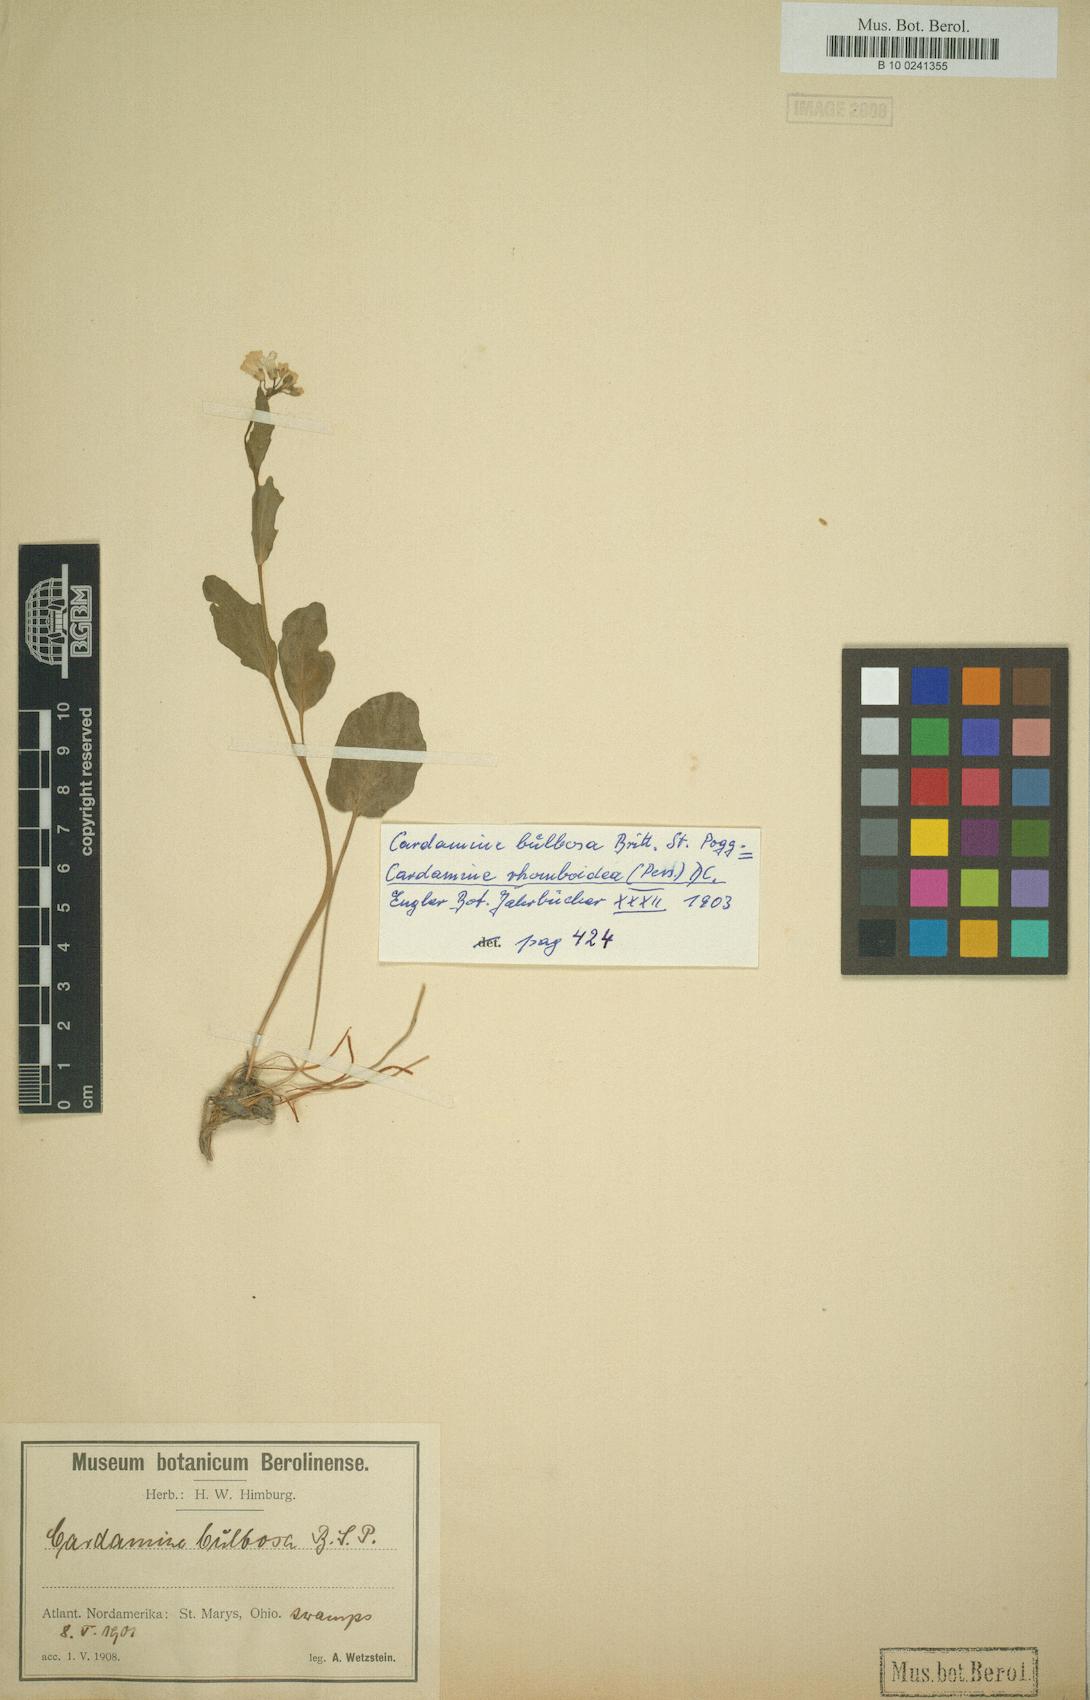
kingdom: Plantae
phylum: Tracheophyta
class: Magnoliopsida
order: Brassicales
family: Brassicaceae
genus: Cardamine
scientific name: Cardamine bulbosa
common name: Spring cress
